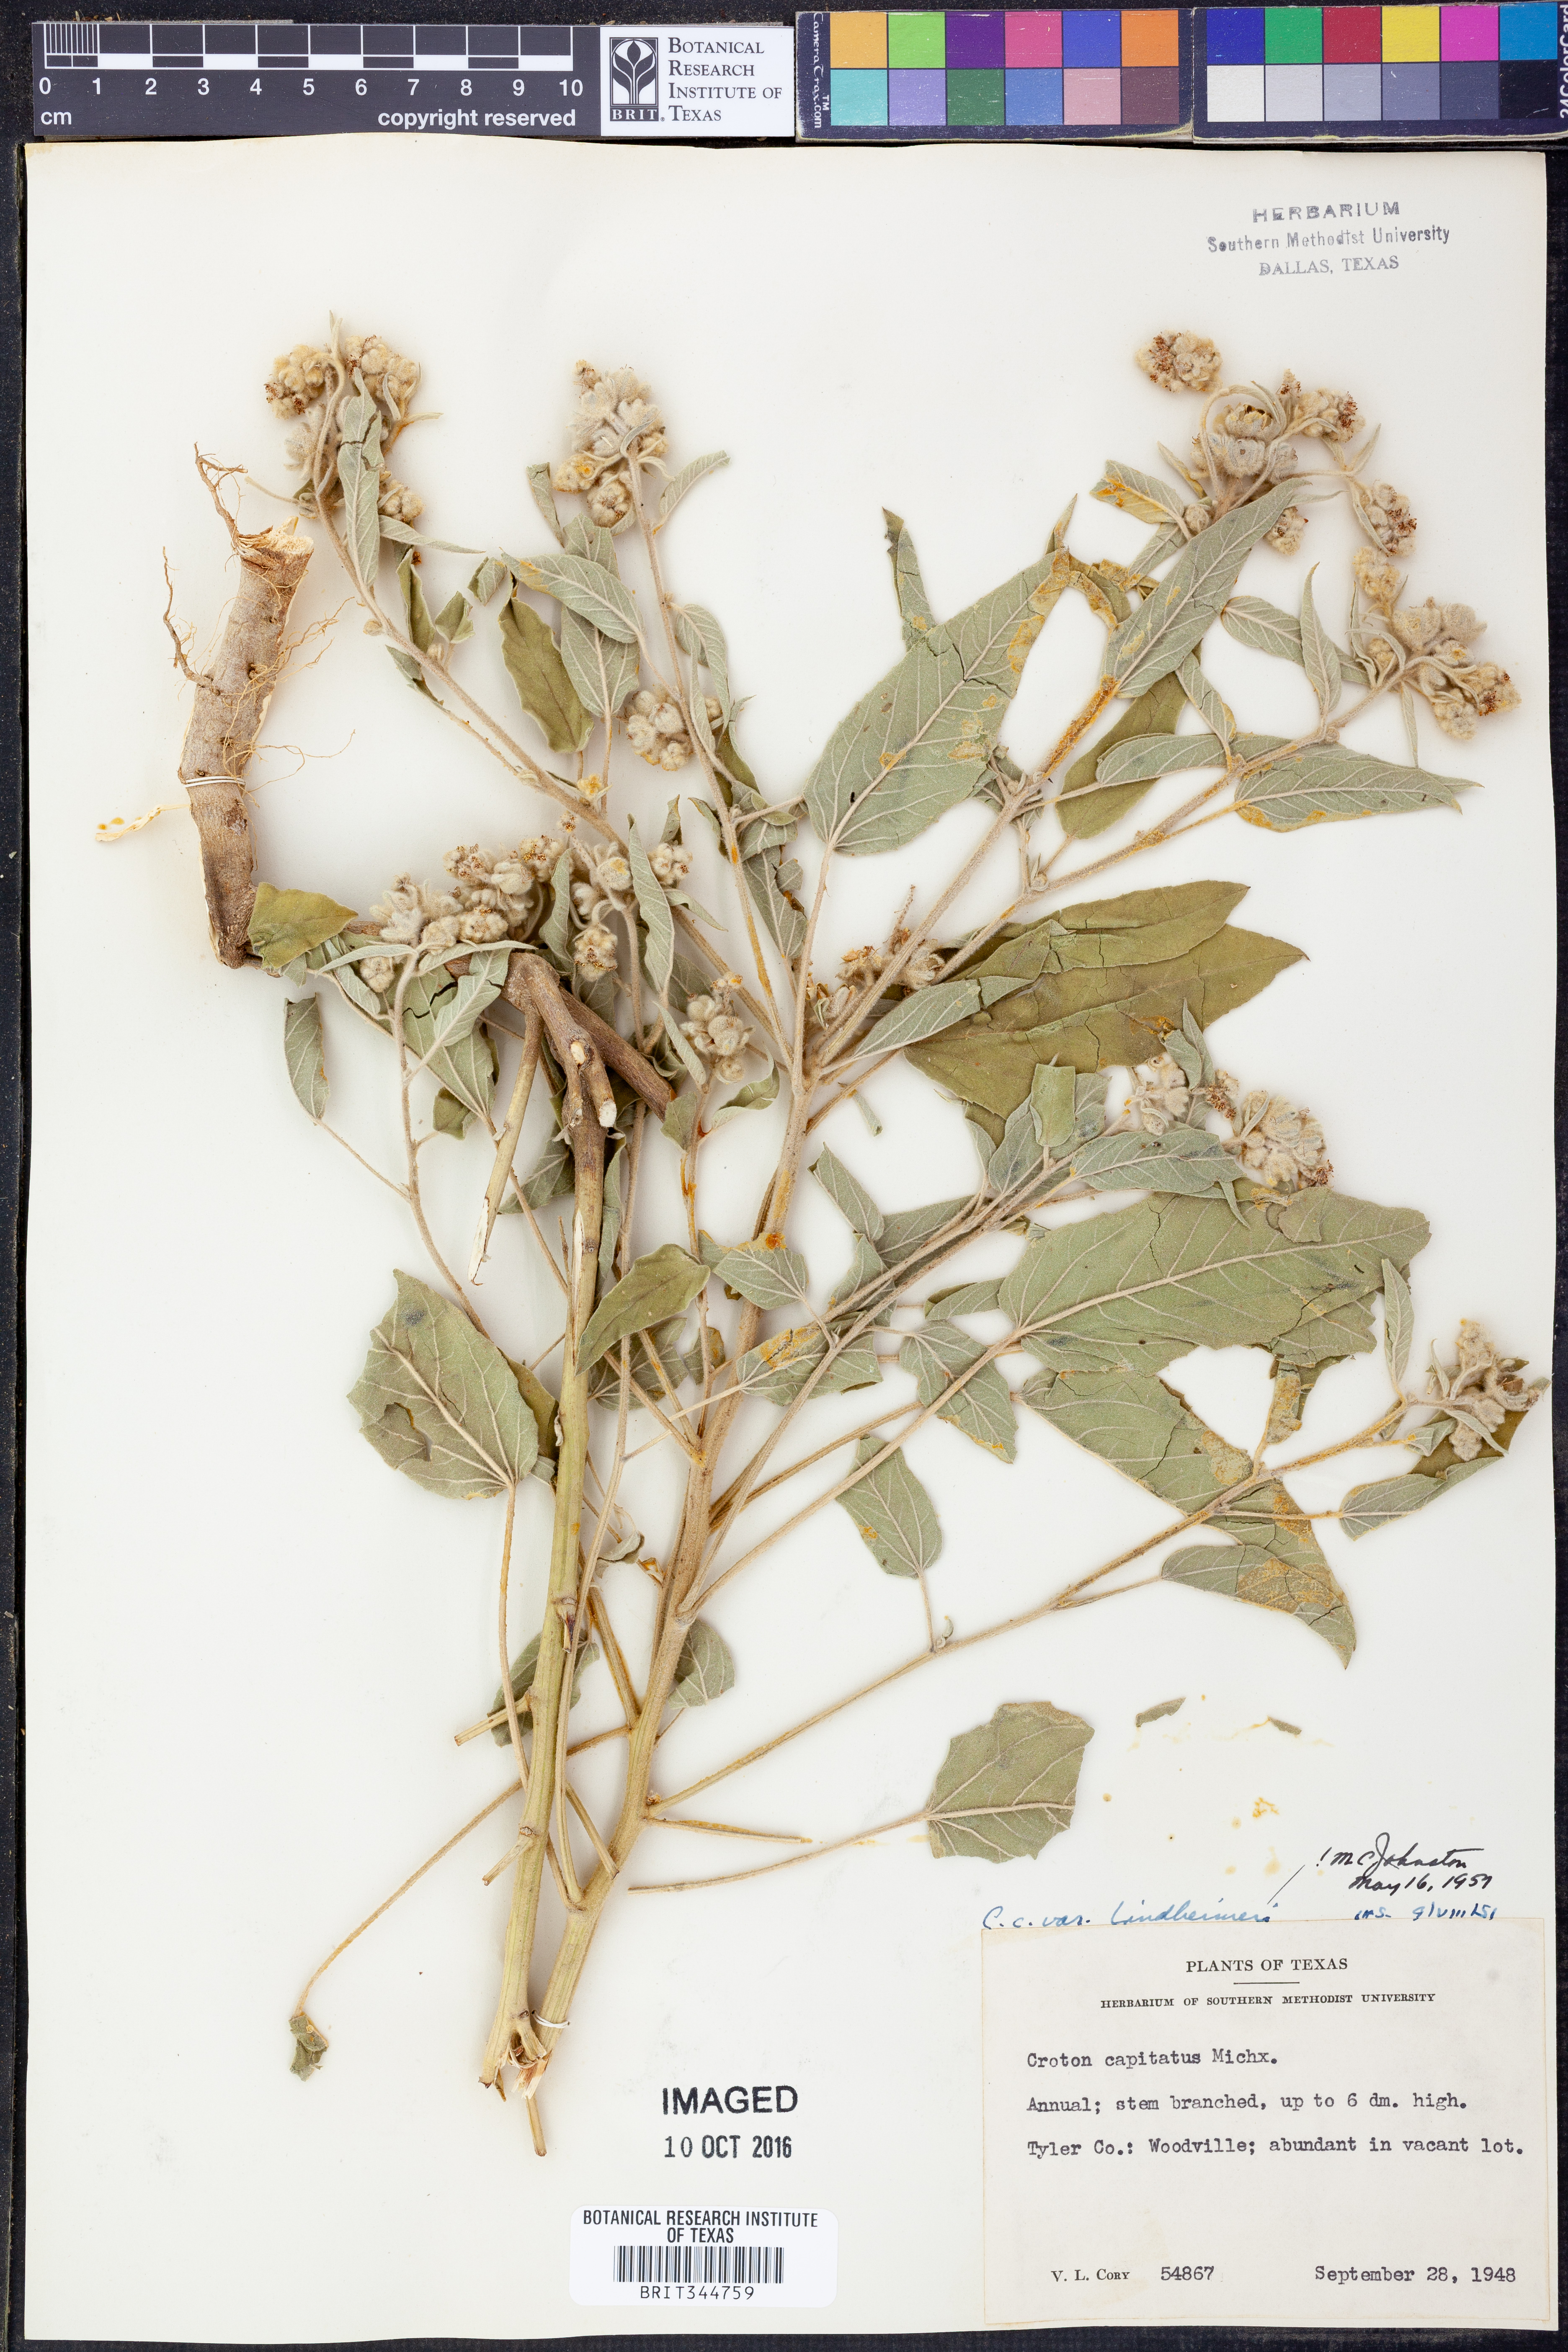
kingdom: Plantae
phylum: Tracheophyta
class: Magnoliopsida
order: Malpighiales
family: Euphorbiaceae
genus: Croton
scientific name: Croton lindheimeri
